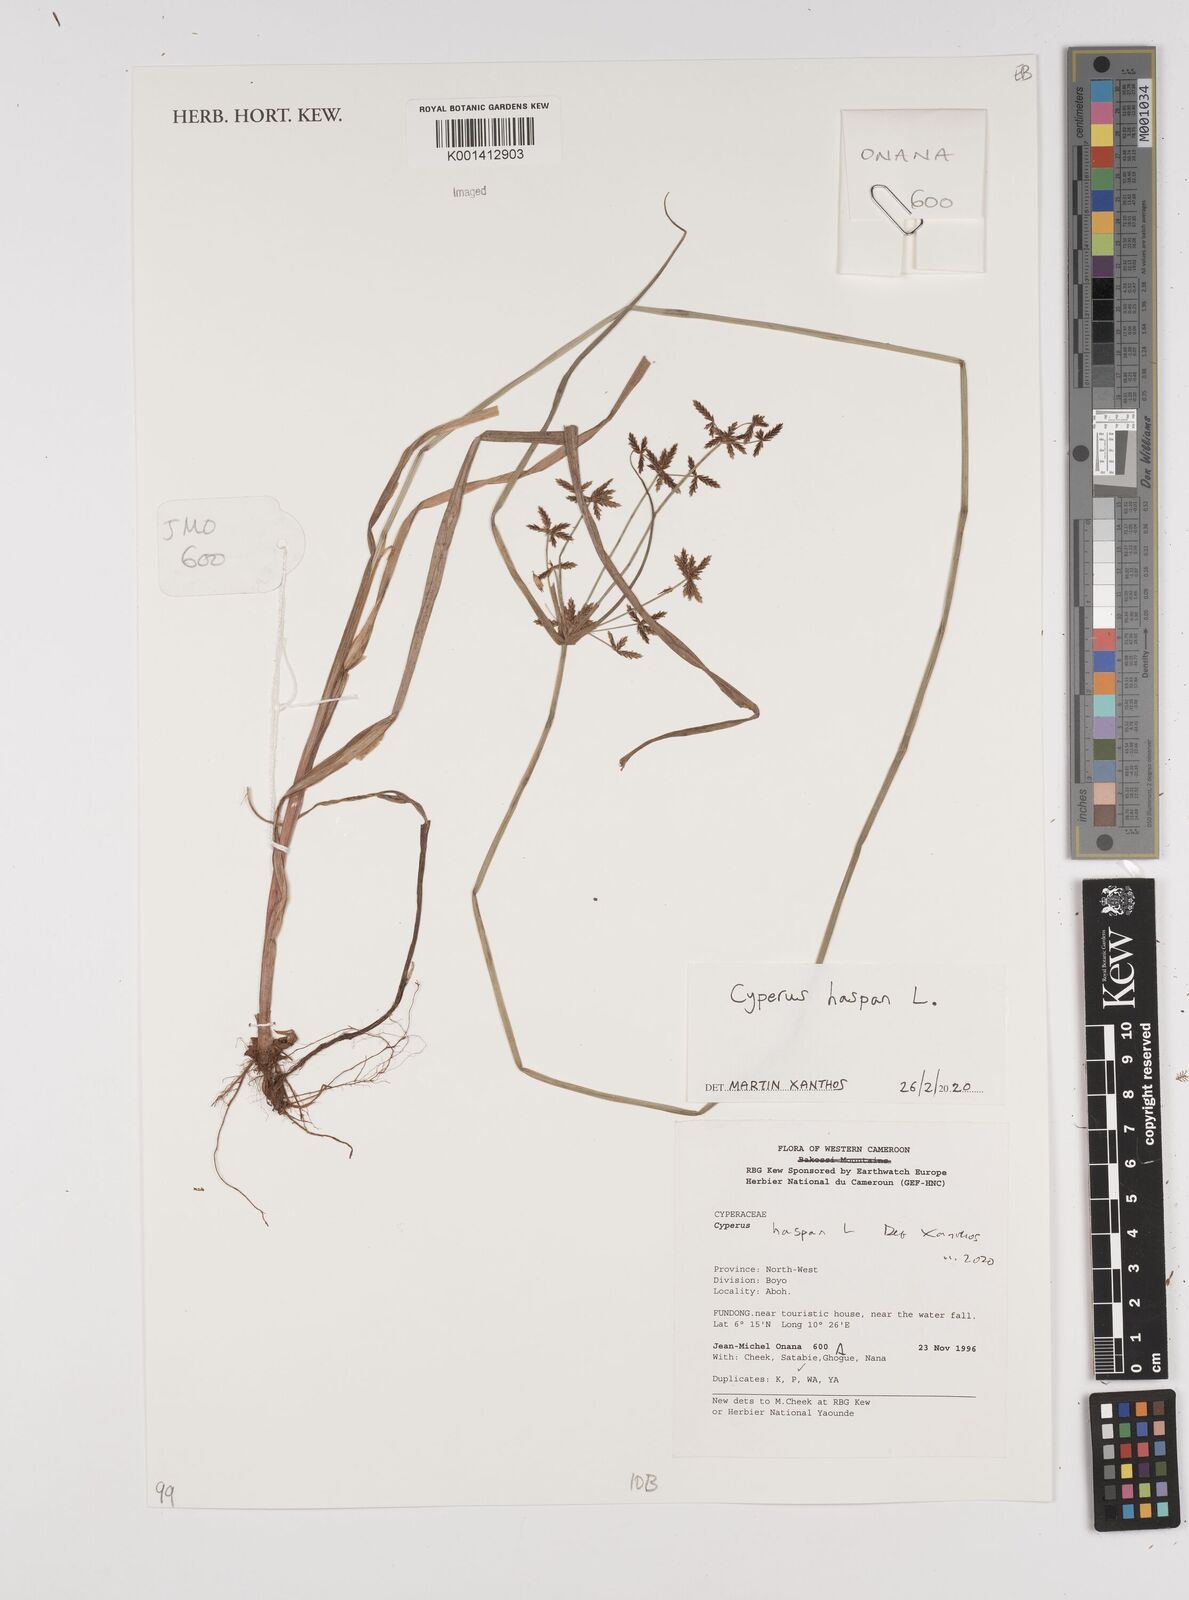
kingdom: Plantae
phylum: Tracheophyta
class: Liliopsida
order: Poales
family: Cyperaceae
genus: Cyperus
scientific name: Cyperus haspan
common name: Haspan flatsedge
